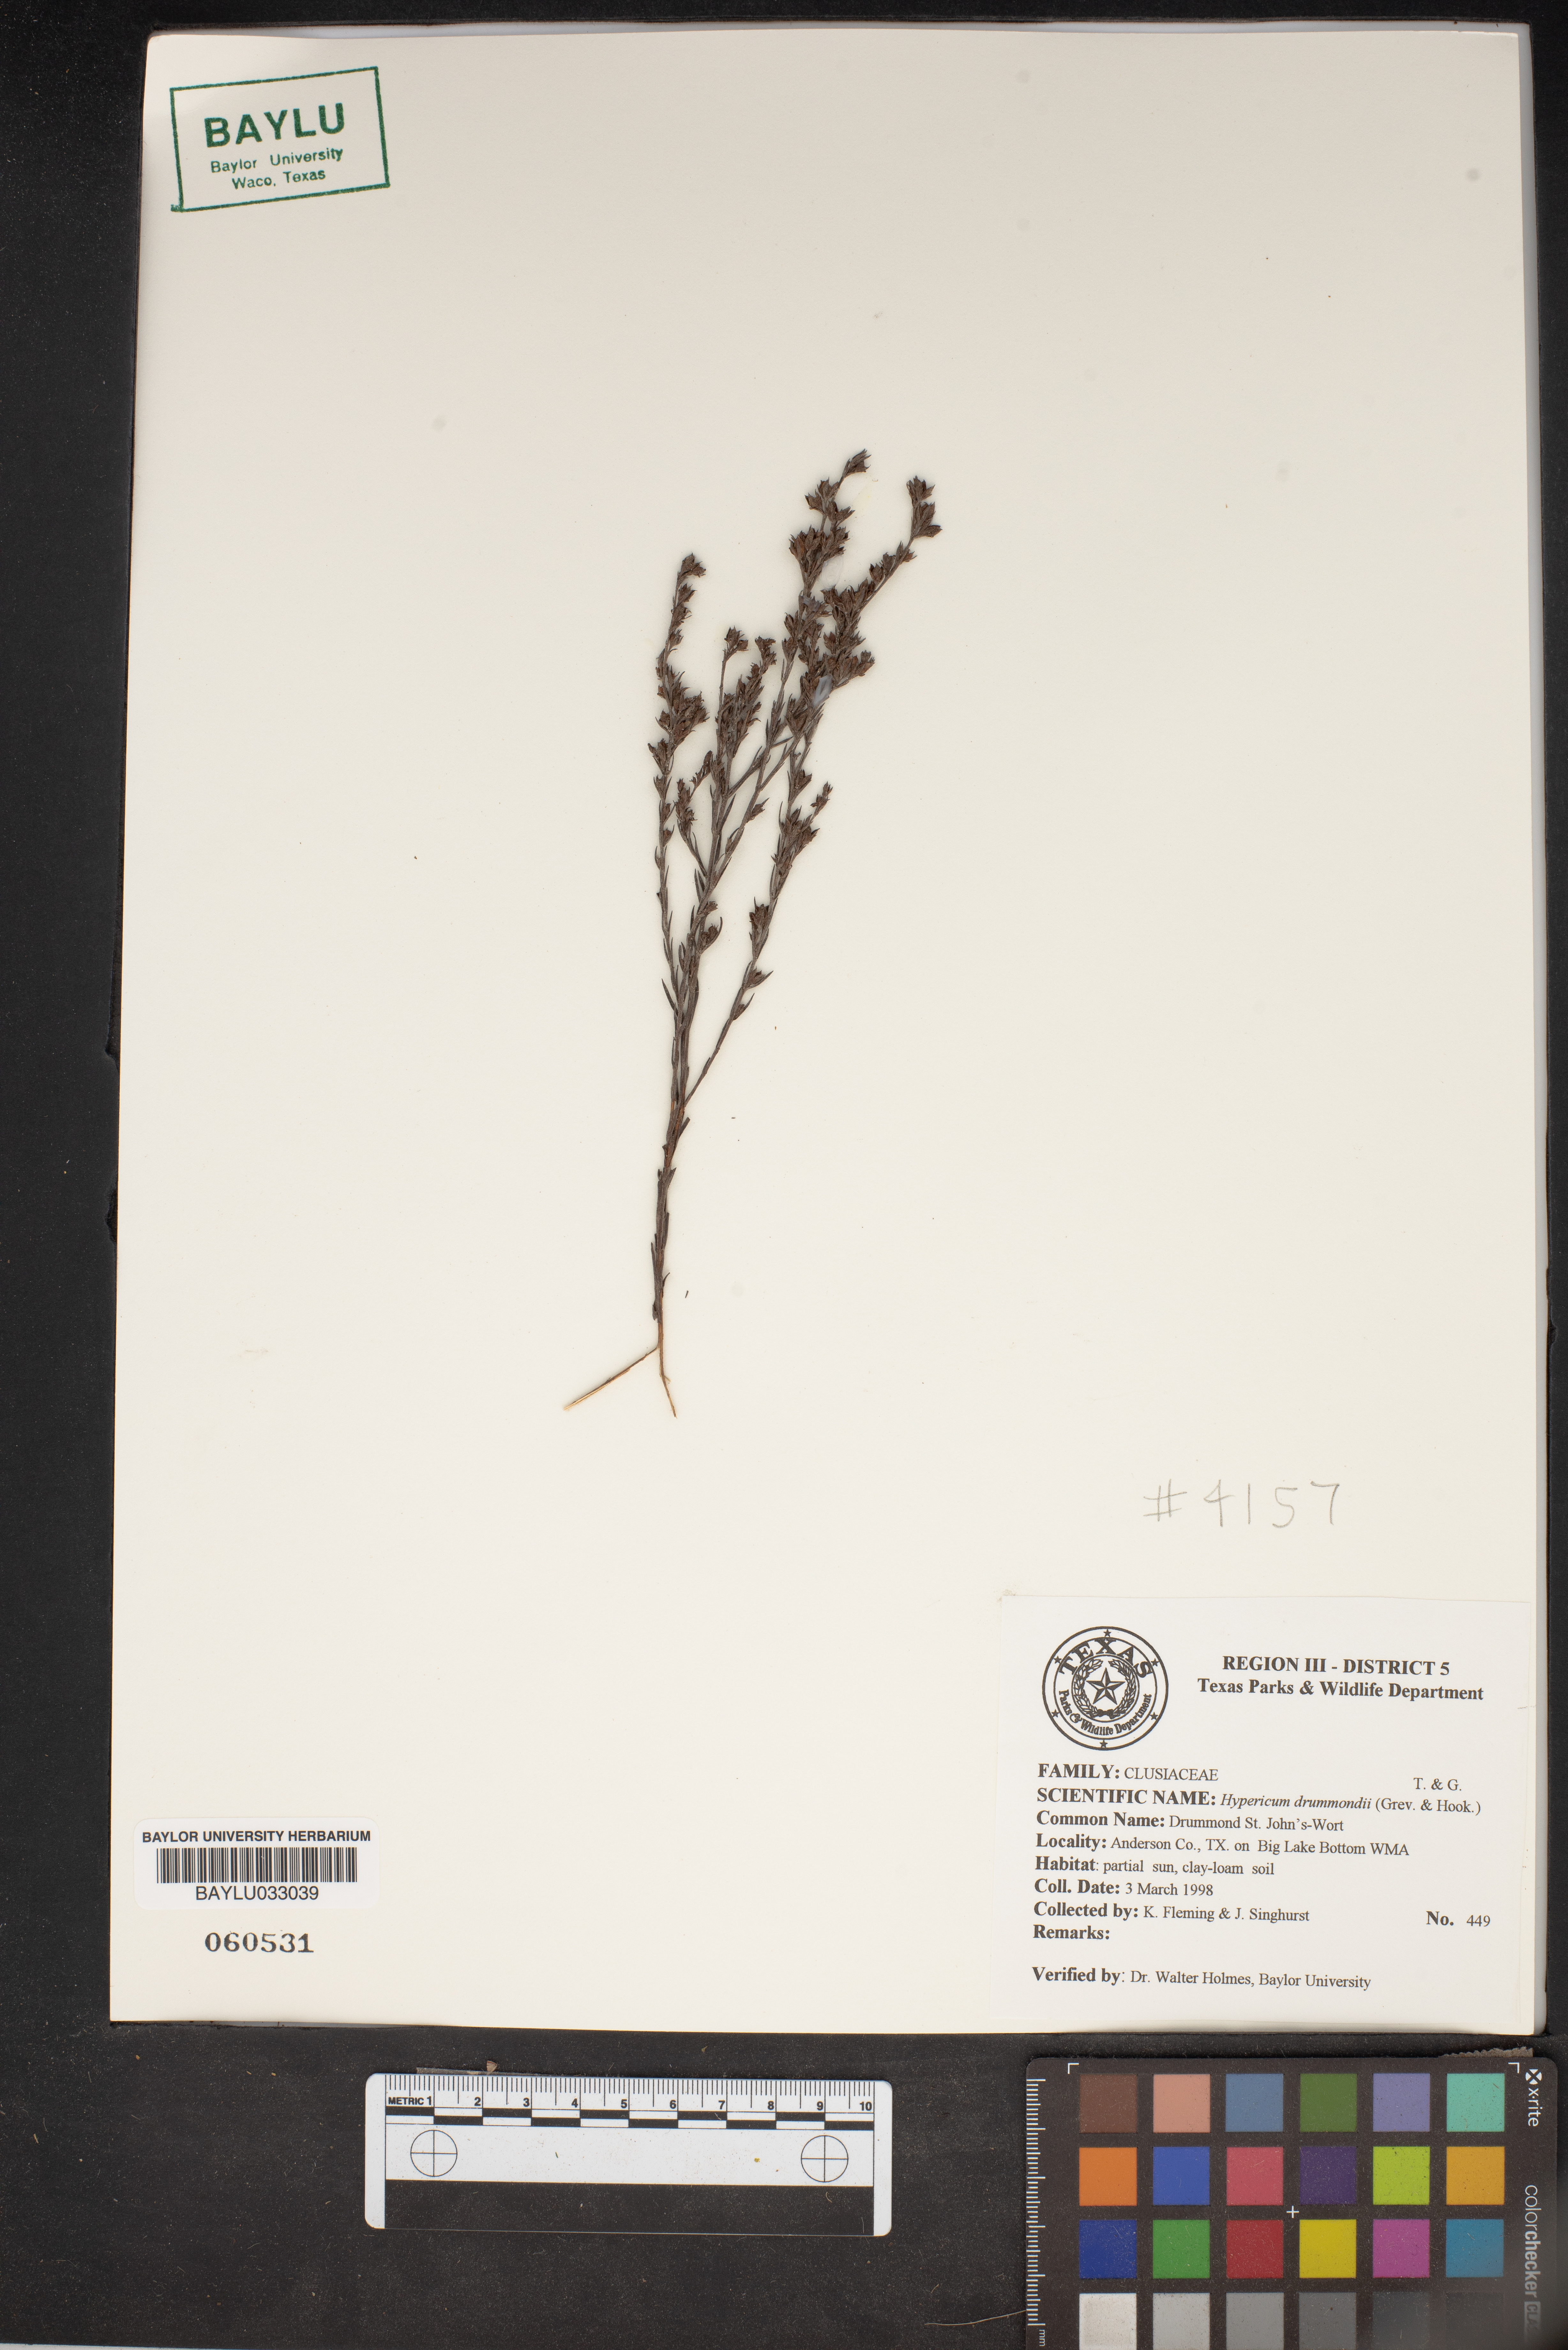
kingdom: Plantae
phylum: Tracheophyta
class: Magnoliopsida
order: Malpighiales
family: Hypericaceae
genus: Hypericum
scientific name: Hypericum drummondii
